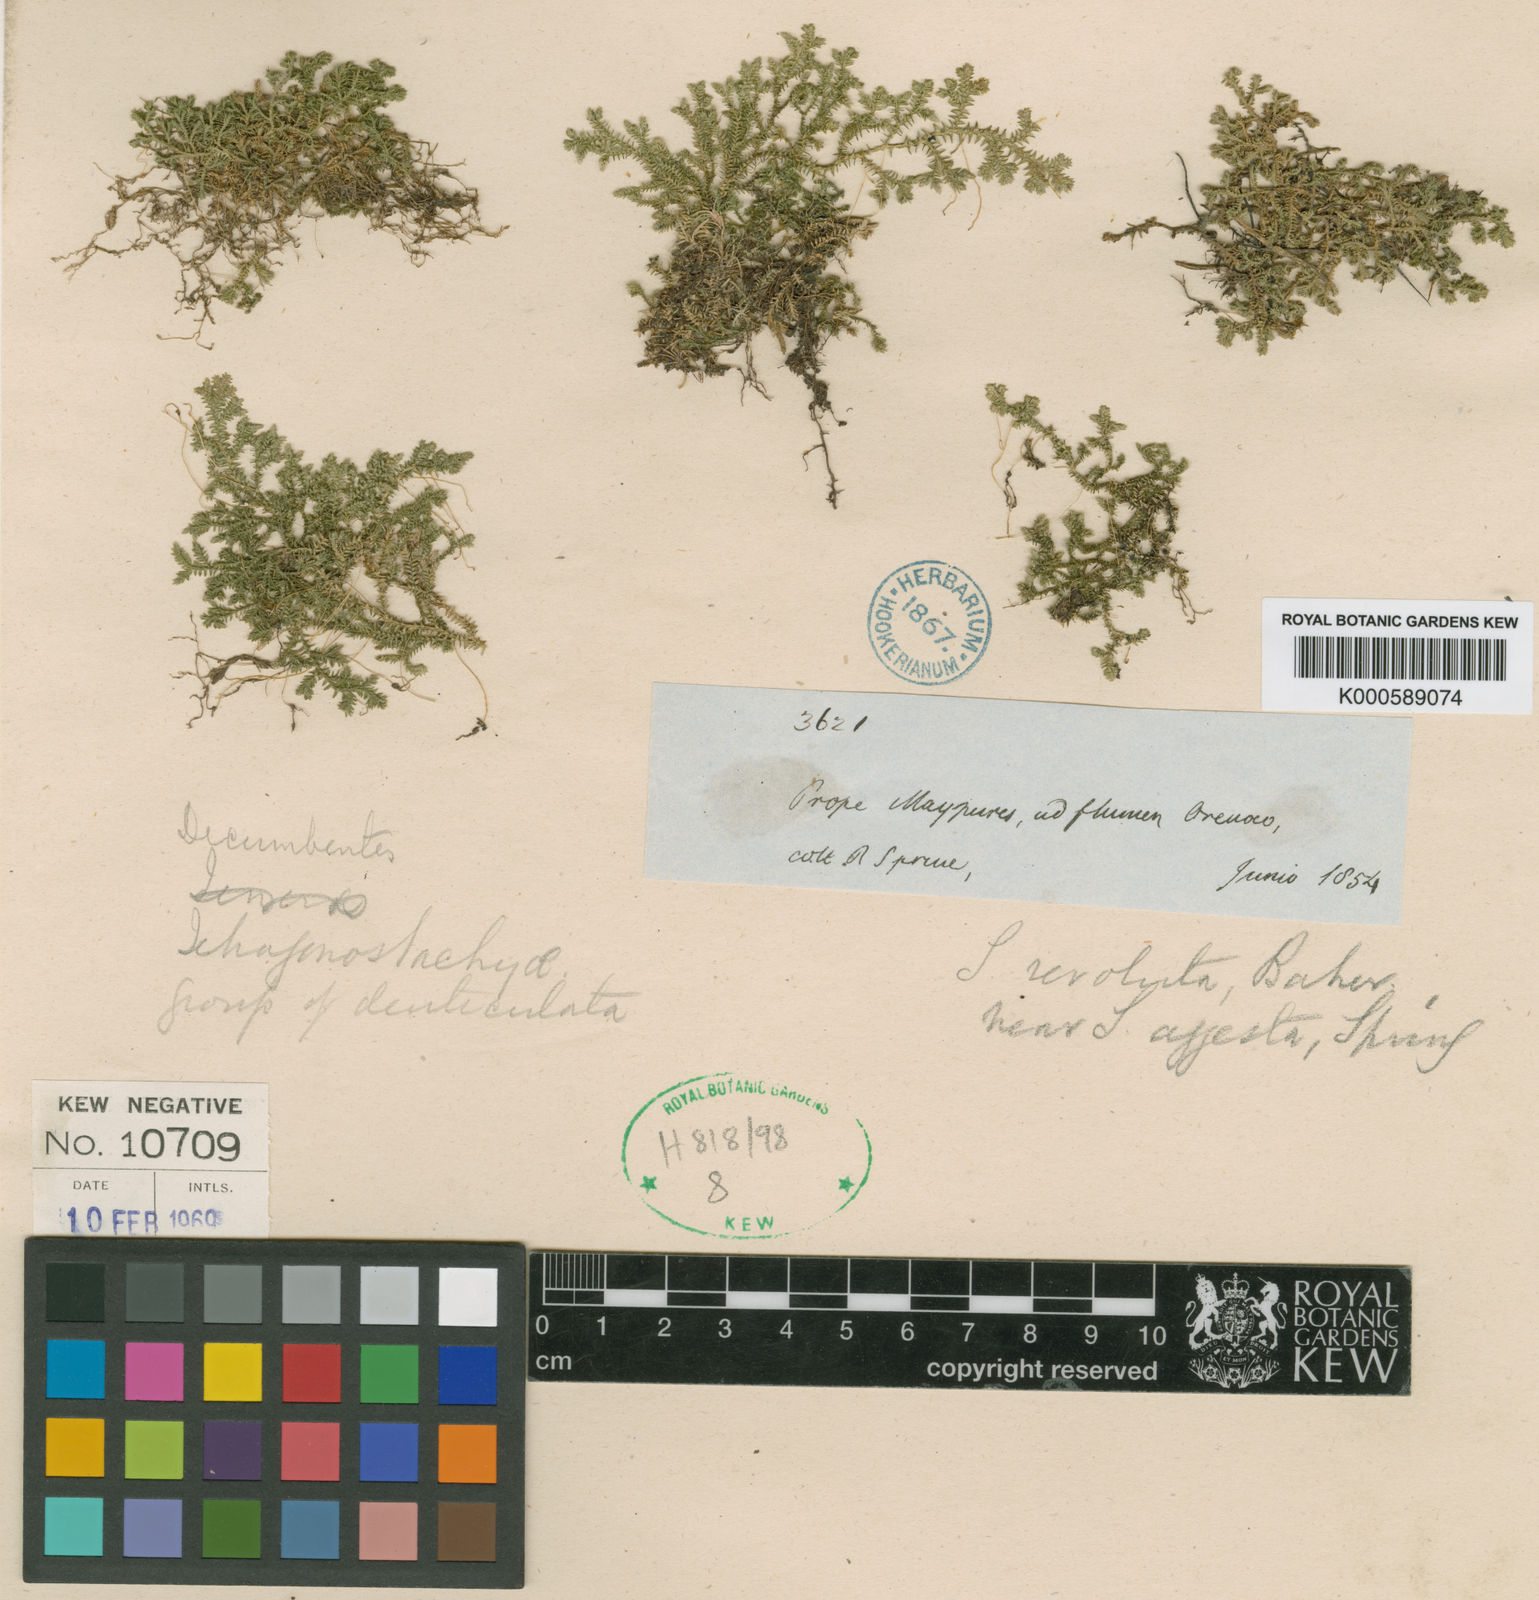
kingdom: Plantae
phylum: Tracheophyta
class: Lycopodiopsida
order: Selaginellales
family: Selaginellaceae
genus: Selaginella
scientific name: Selaginella revoluta
